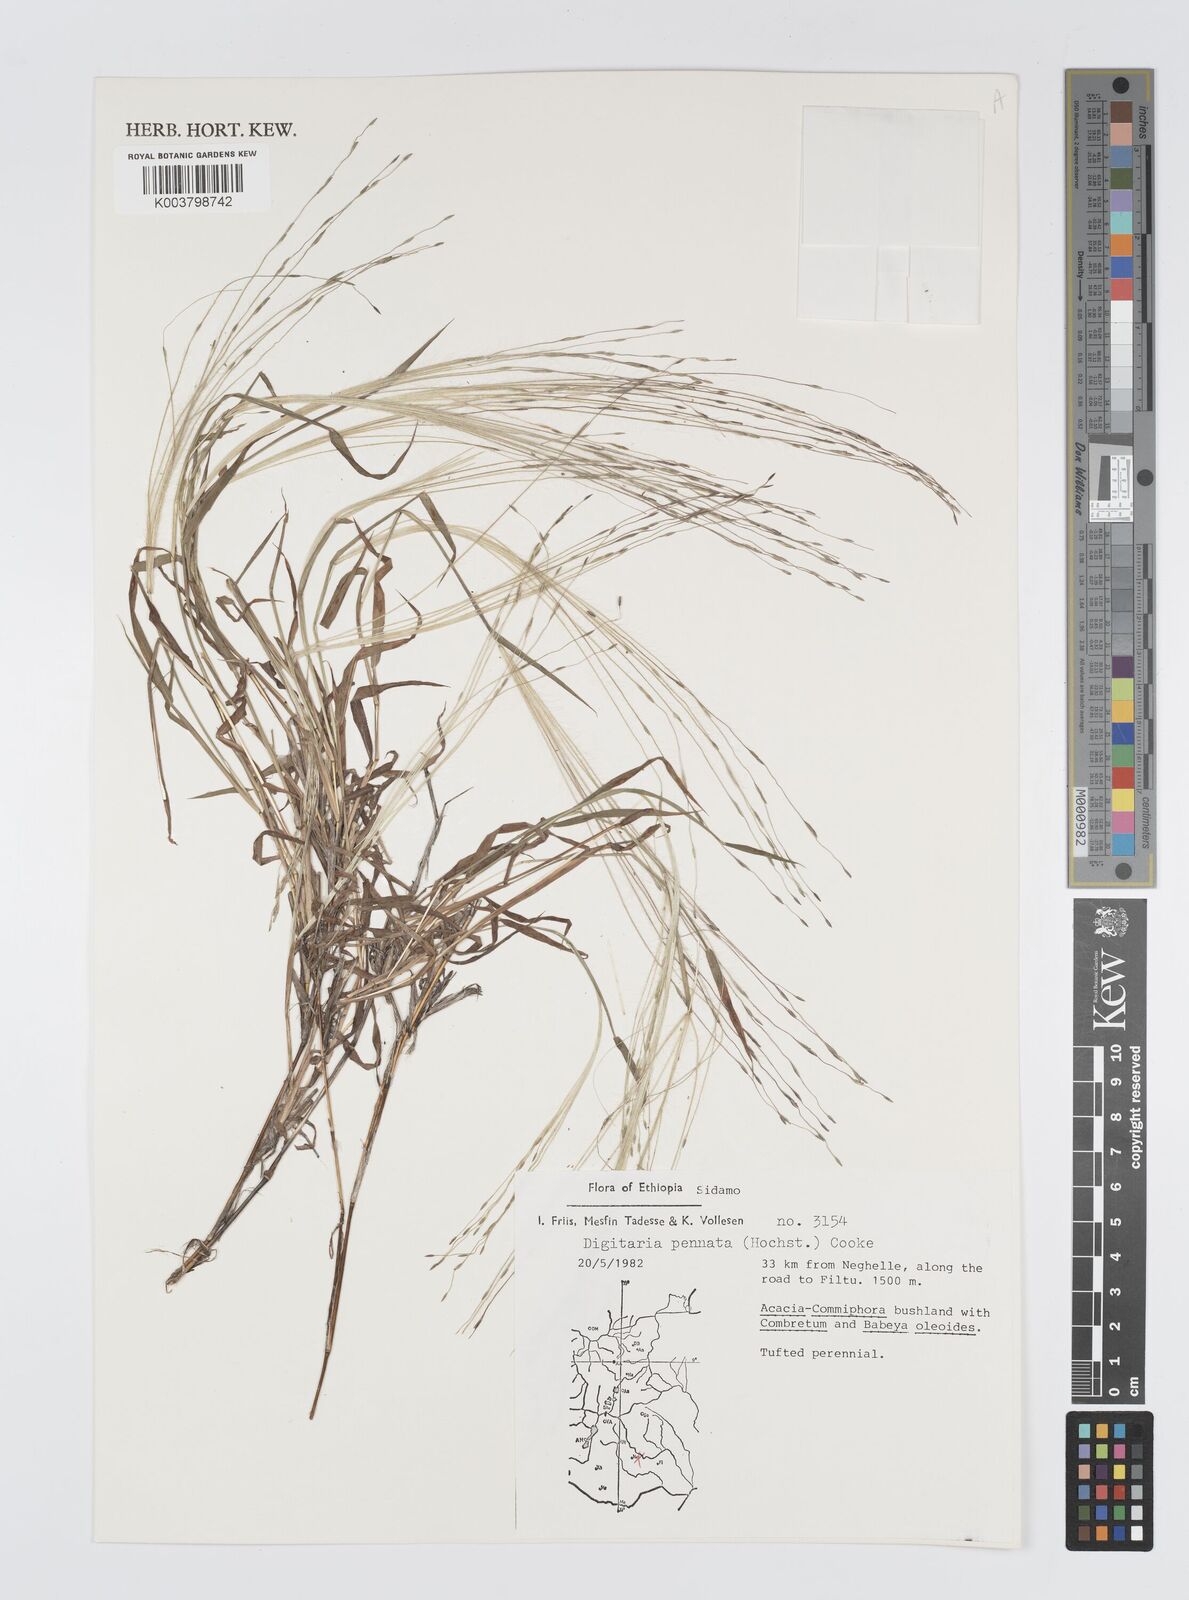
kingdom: Plantae
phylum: Tracheophyta
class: Liliopsida
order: Poales
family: Poaceae
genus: Digitaria
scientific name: Digitaria pennata
